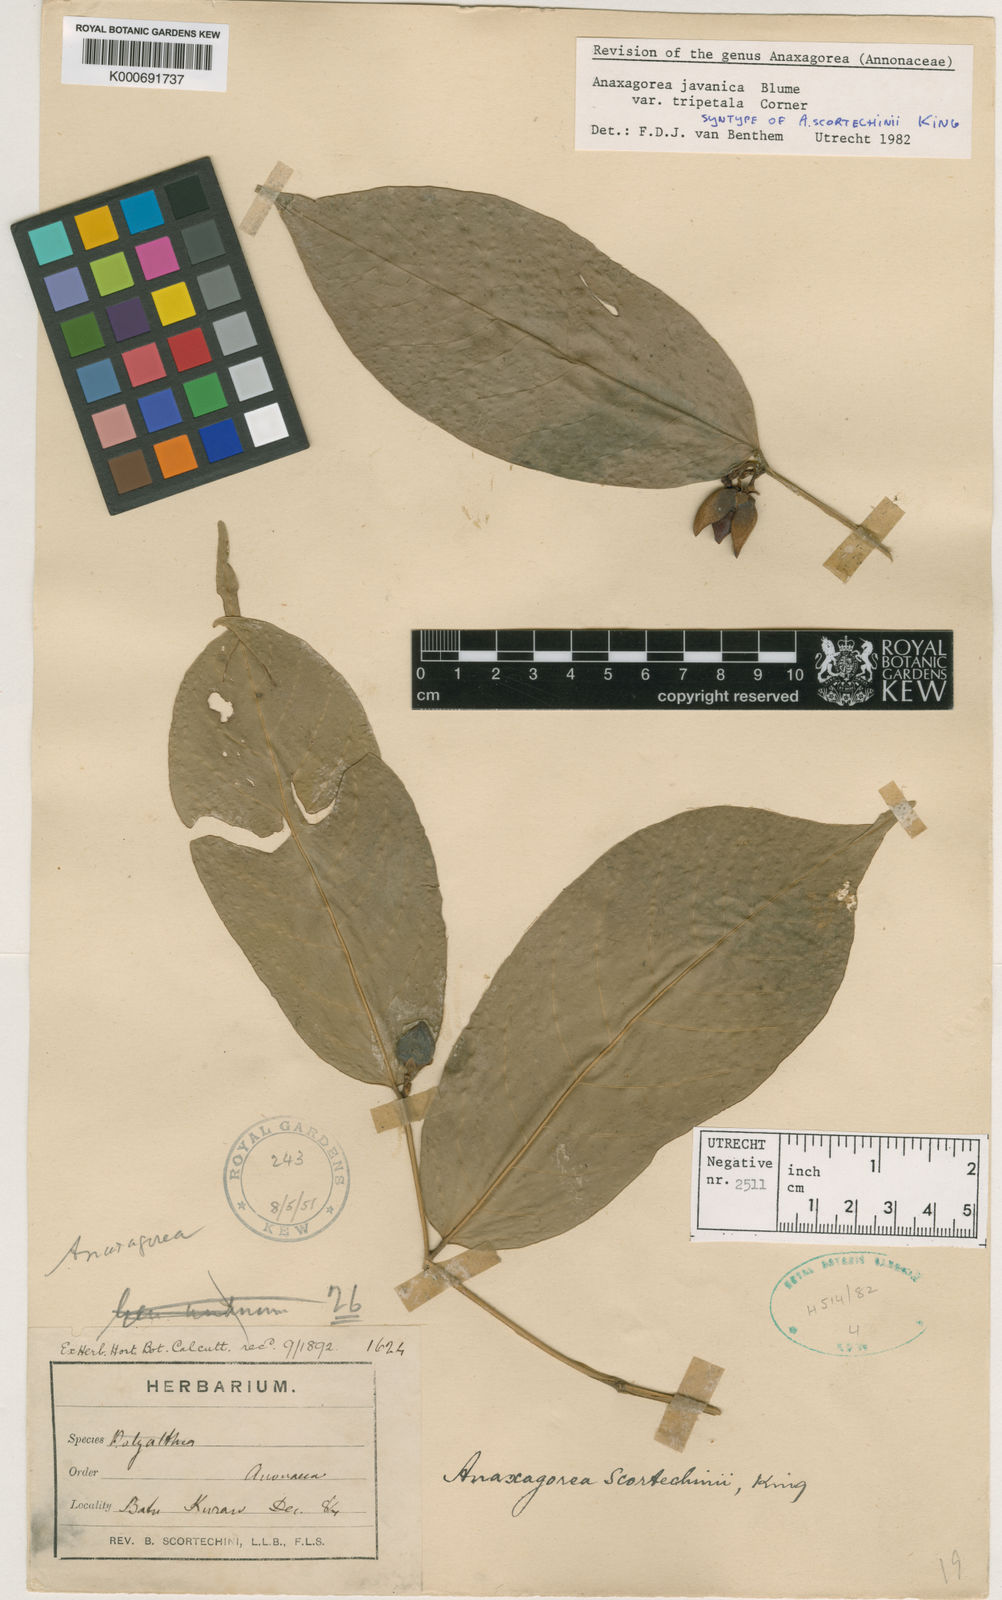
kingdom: Plantae
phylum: Tracheophyta
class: Magnoliopsida
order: Magnoliales
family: Annonaceae
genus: Anaxagorea
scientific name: Anaxagorea javanica
